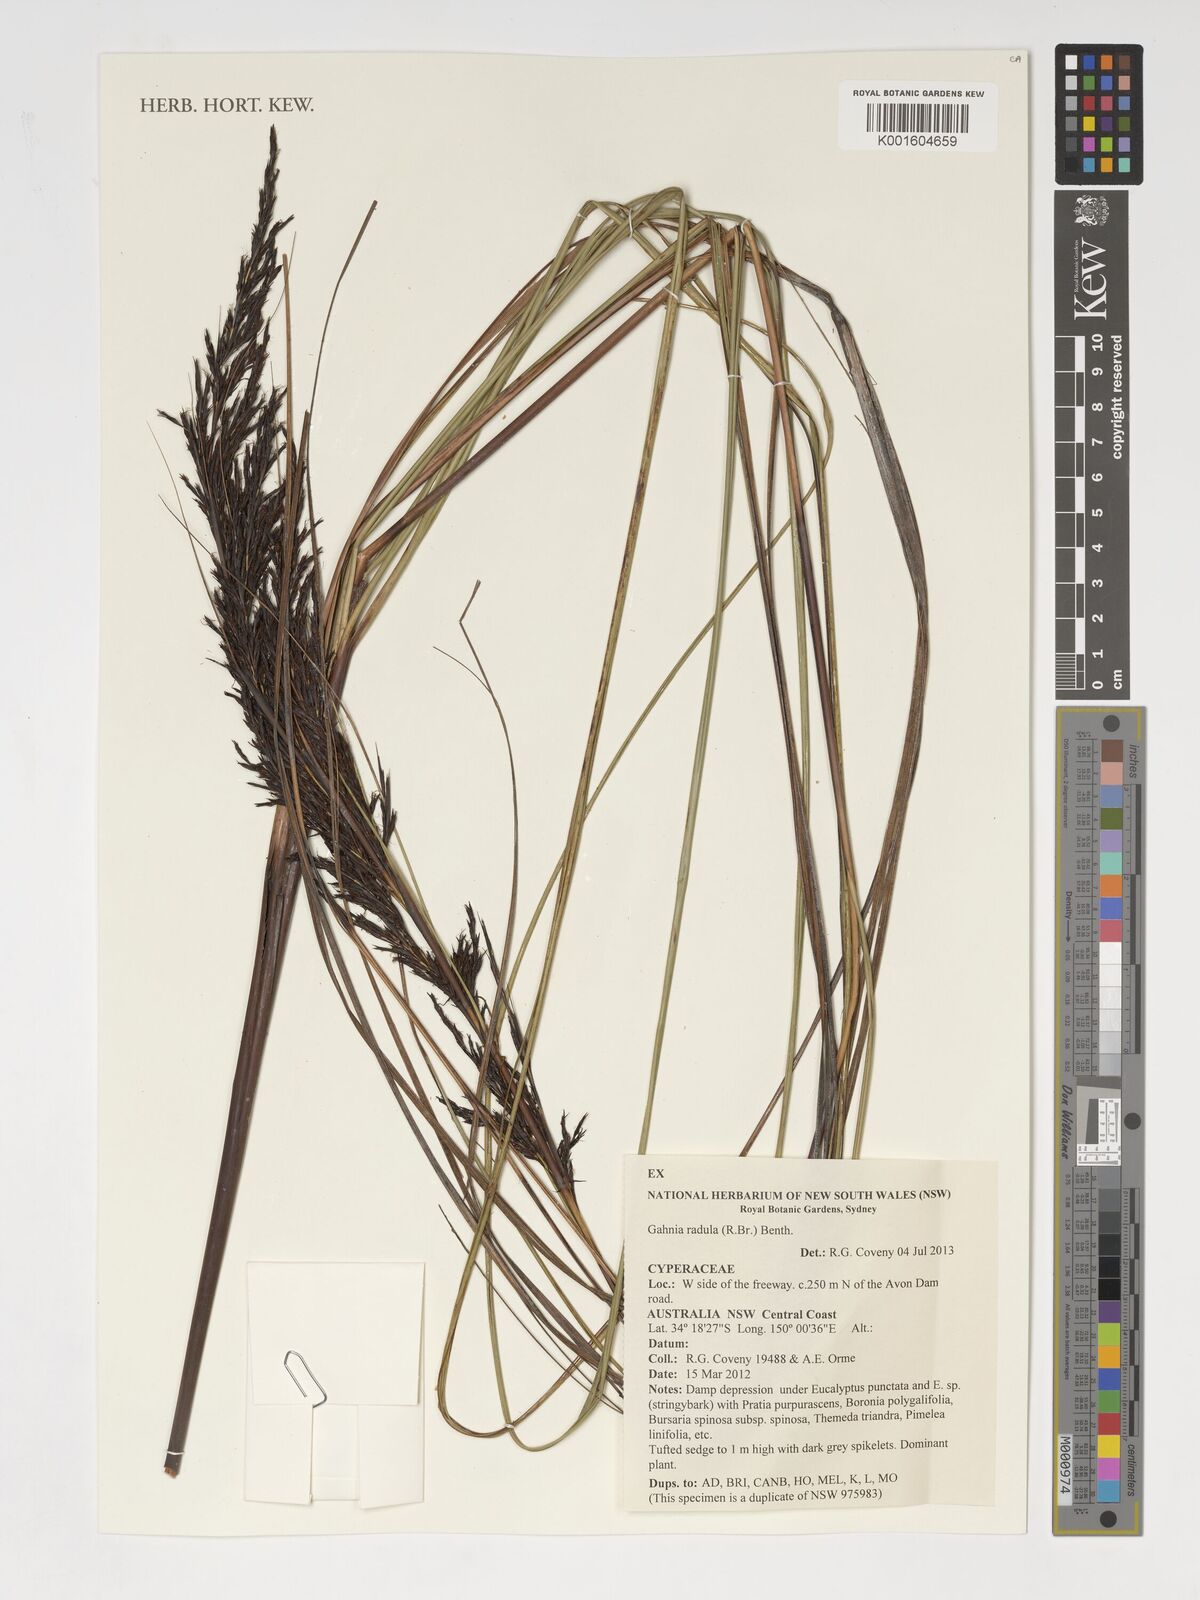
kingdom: Plantae
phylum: Tracheophyta
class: Liliopsida
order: Poales
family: Cyperaceae
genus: Gahnia
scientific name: Gahnia radula
